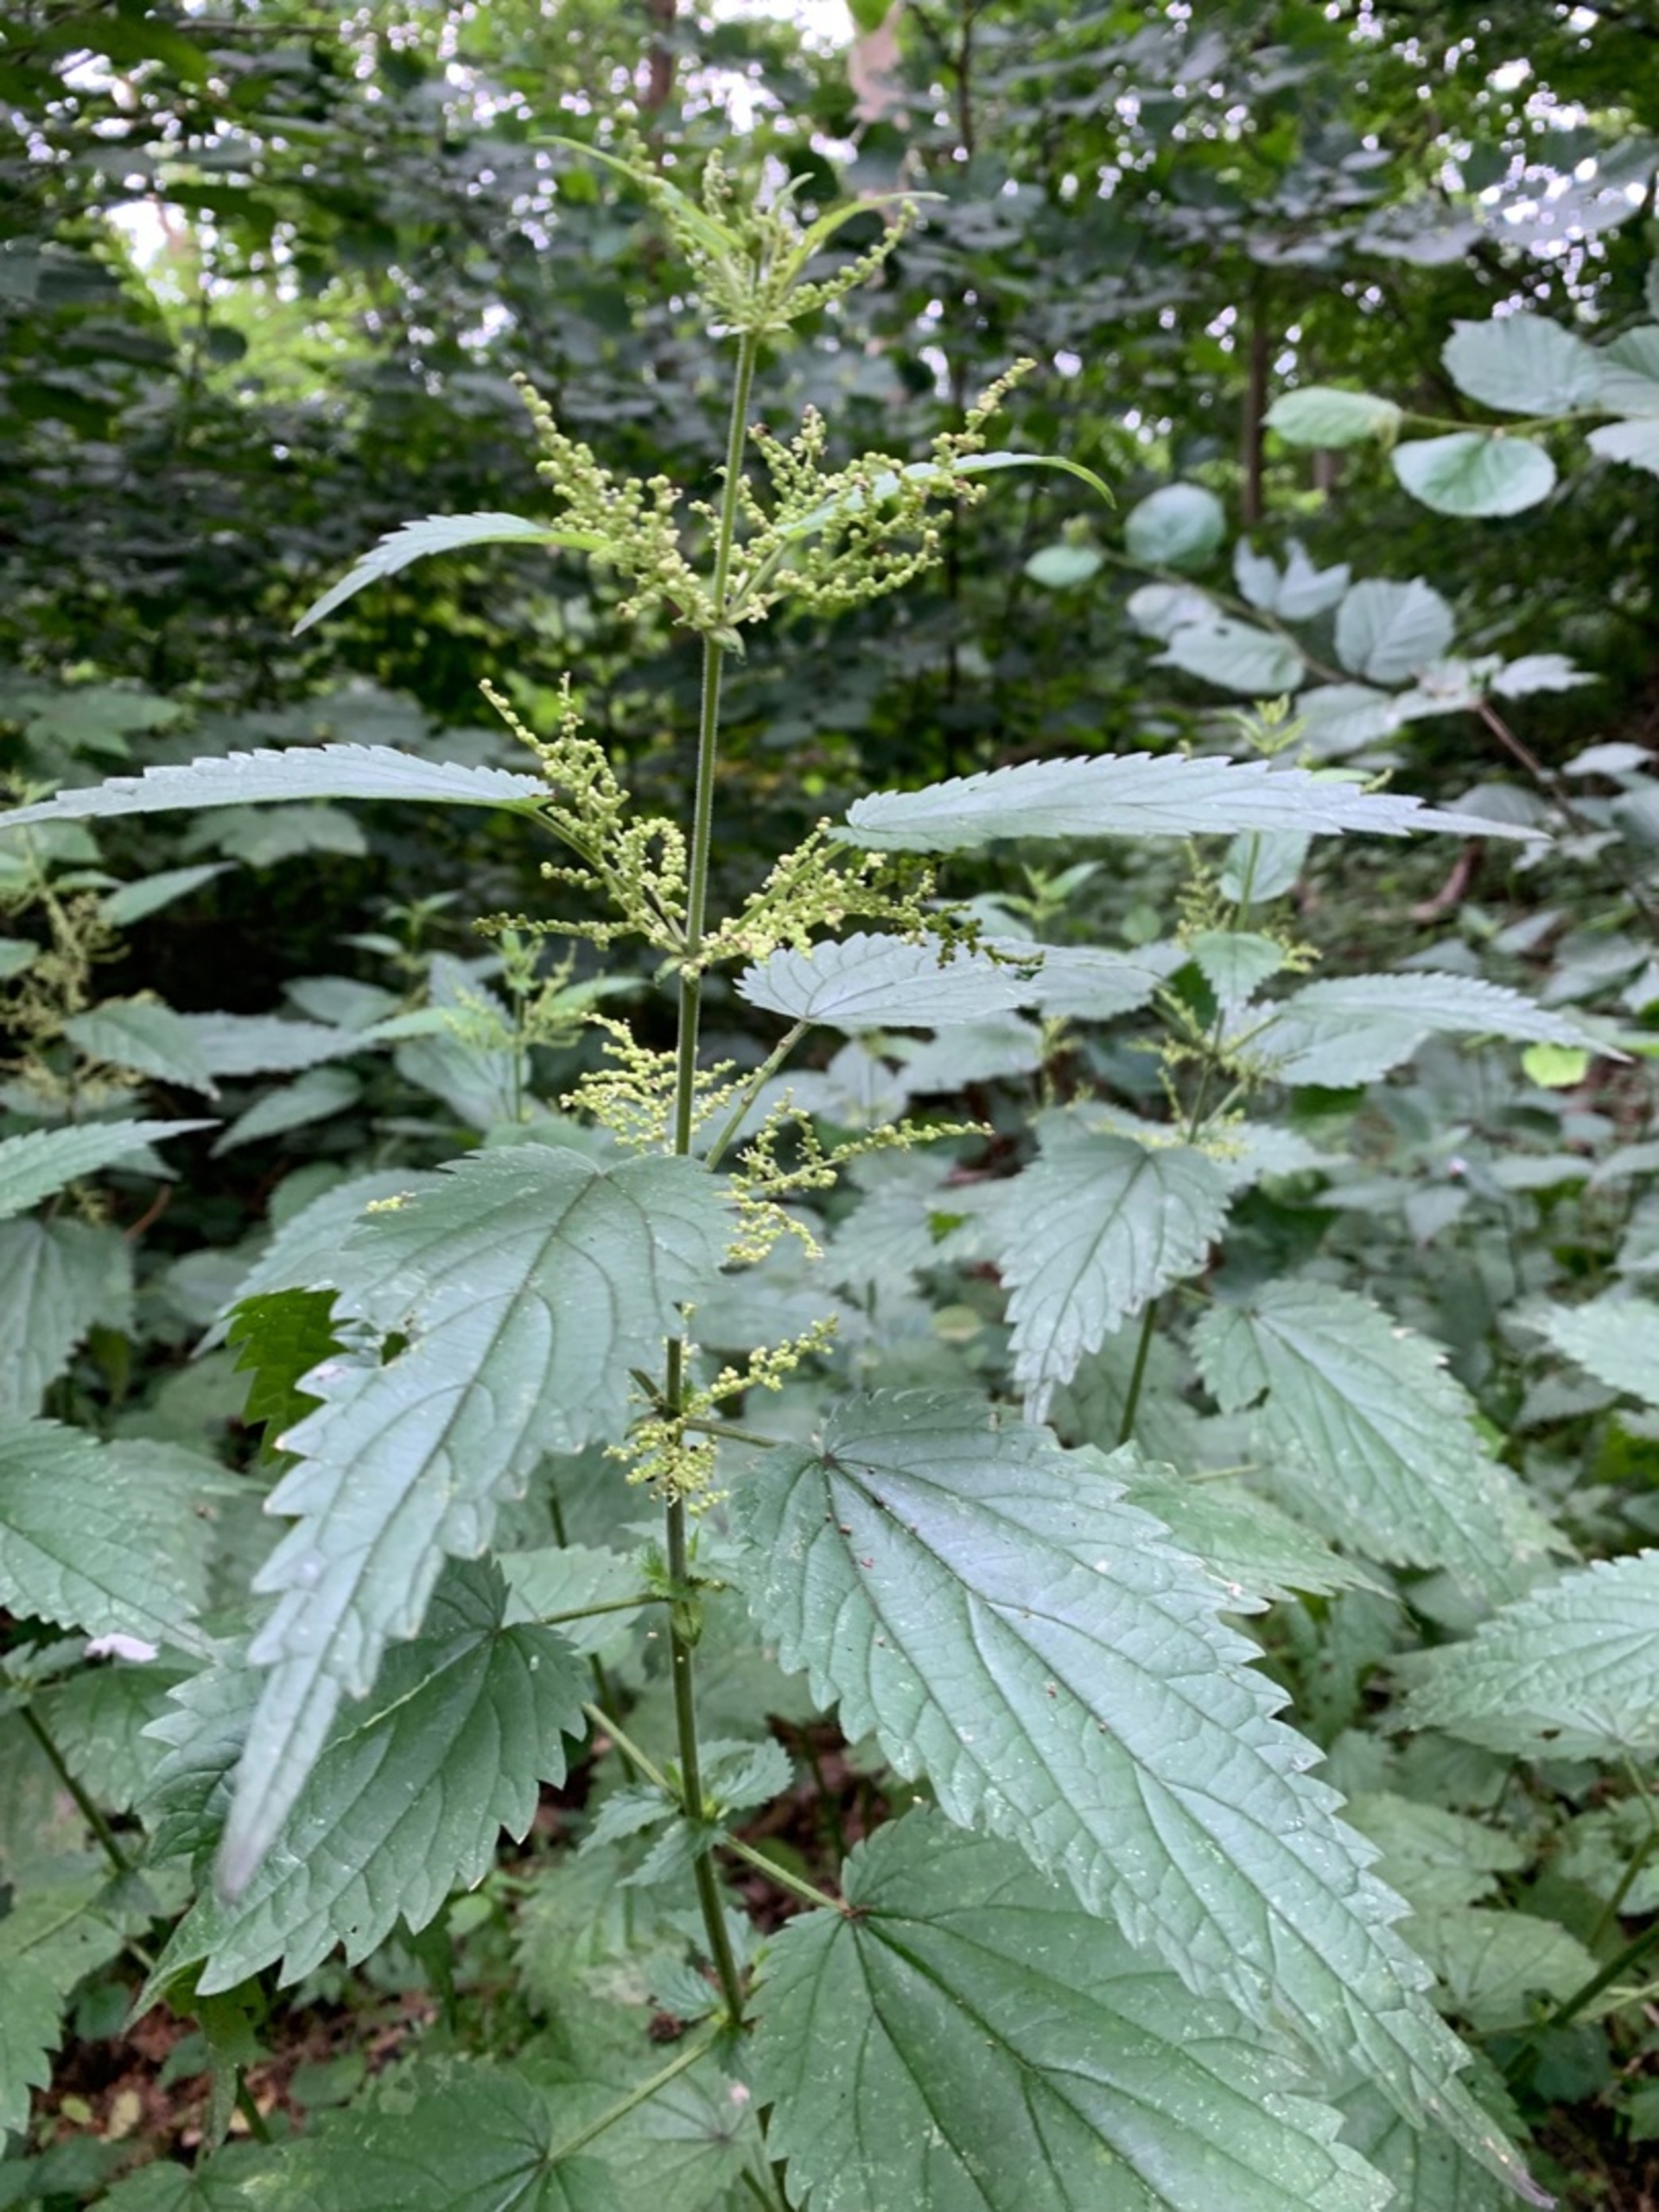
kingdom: Plantae
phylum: Tracheophyta
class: Magnoliopsida
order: Rosales
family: Urticaceae
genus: Urtica
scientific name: Urtica dioica
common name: Stor nælde
